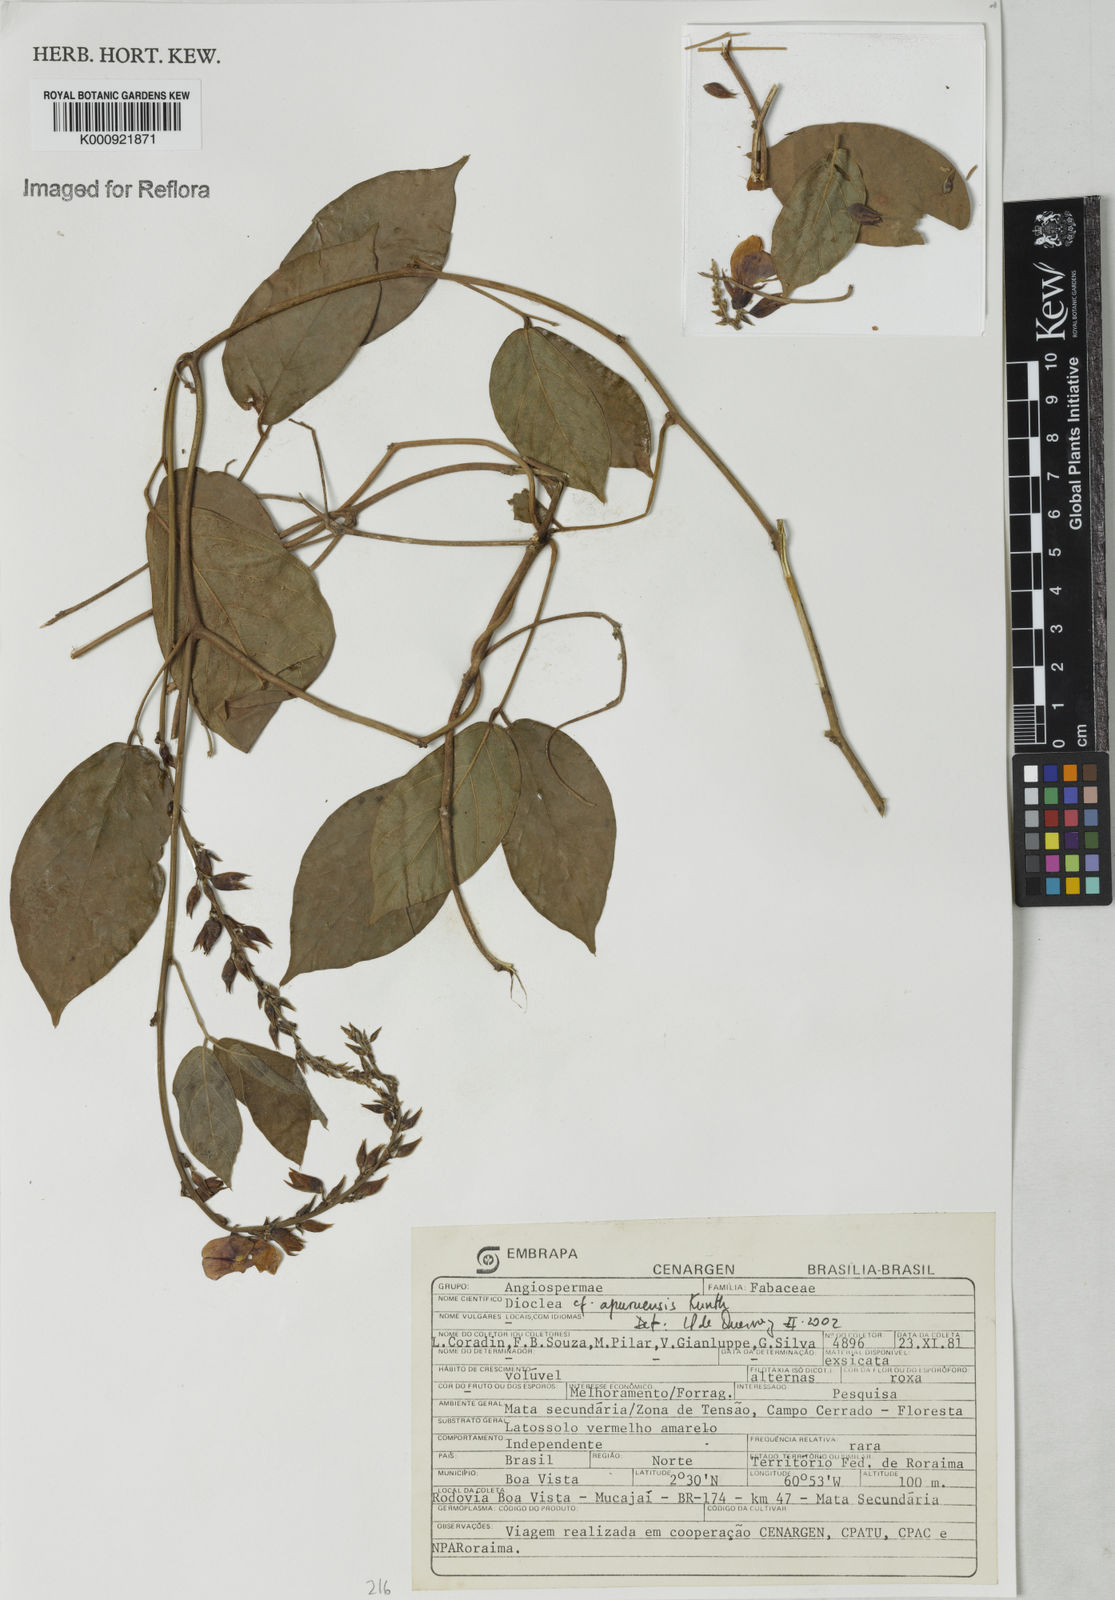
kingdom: Plantae
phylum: Tracheophyta
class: Magnoliopsida
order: Fabales
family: Fabaceae
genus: Dioclea
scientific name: Dioclea
